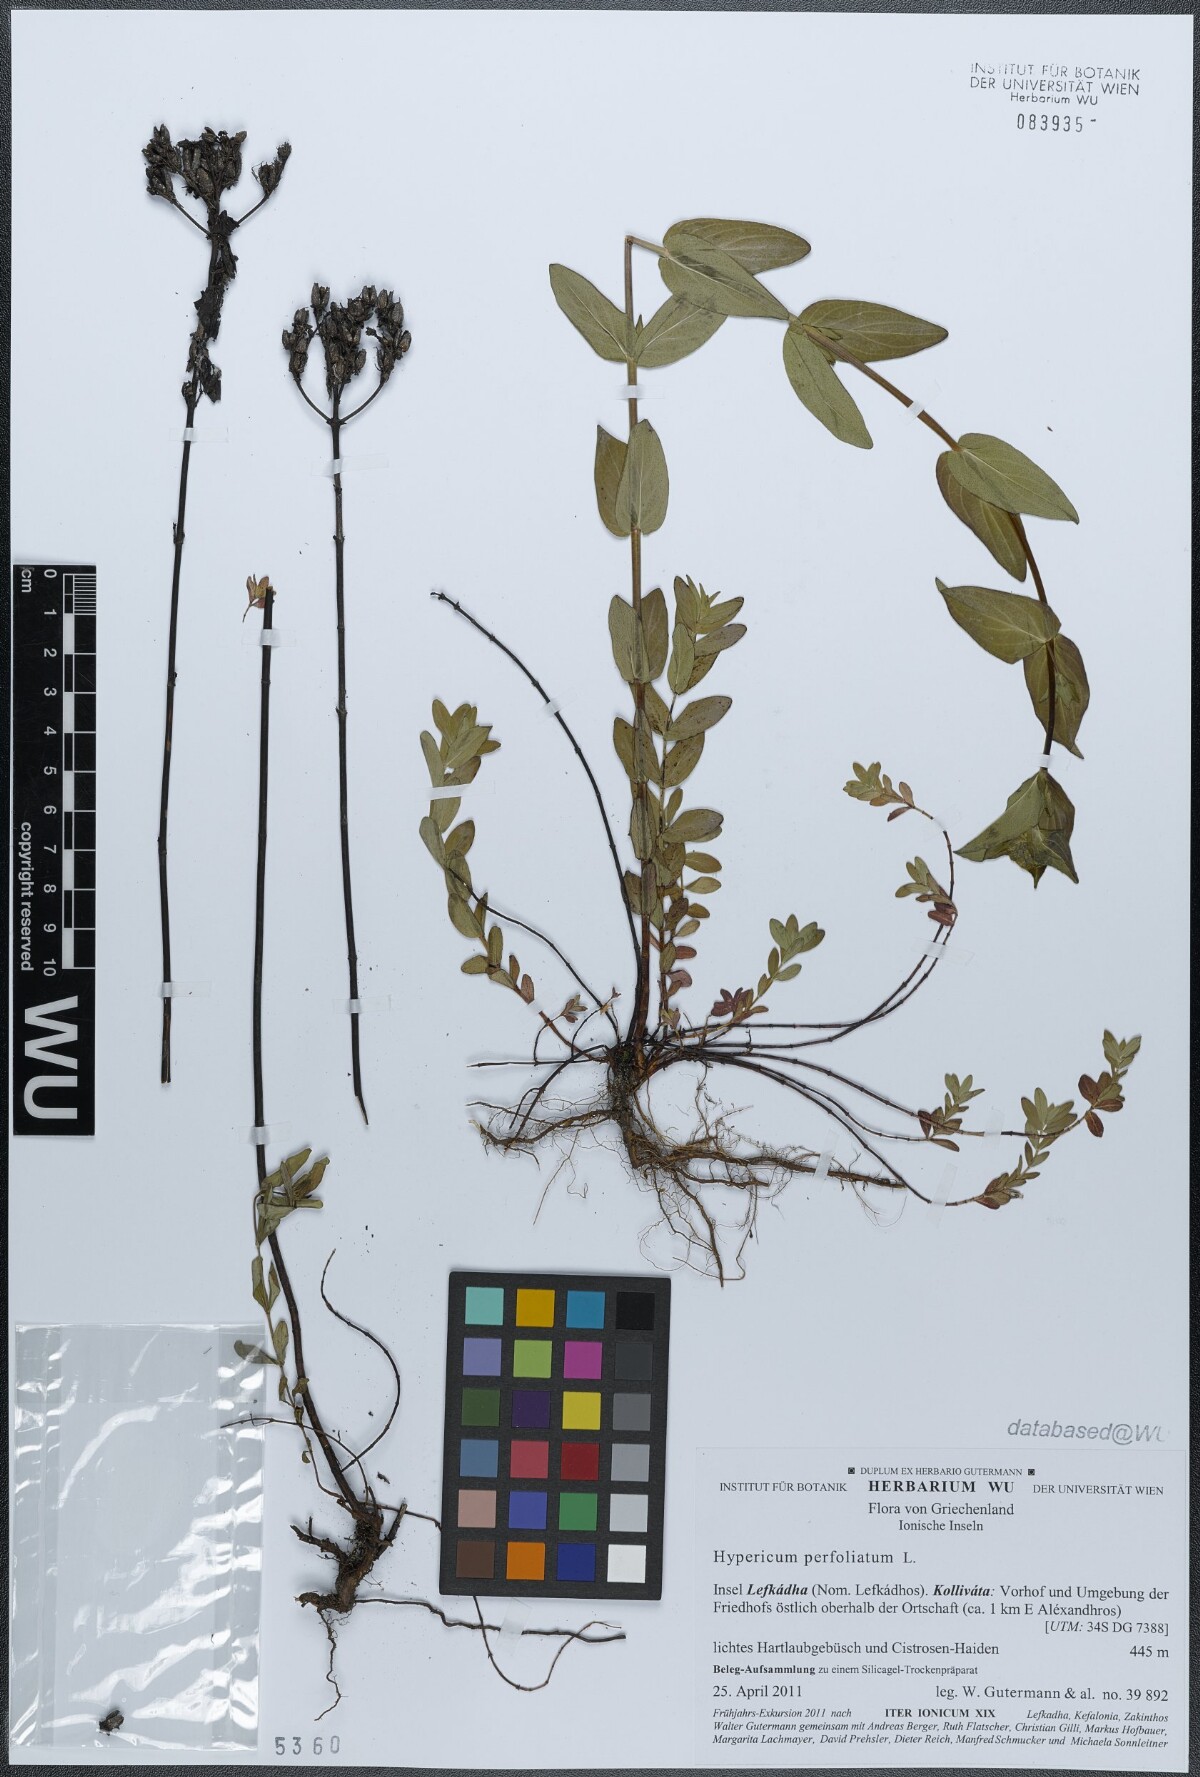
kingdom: Plantae
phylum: Tracheophyta
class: Magnoliopsida
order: Malpighiales
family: Hypericaceae
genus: Hypericum
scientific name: Hypericum perfoliatum
